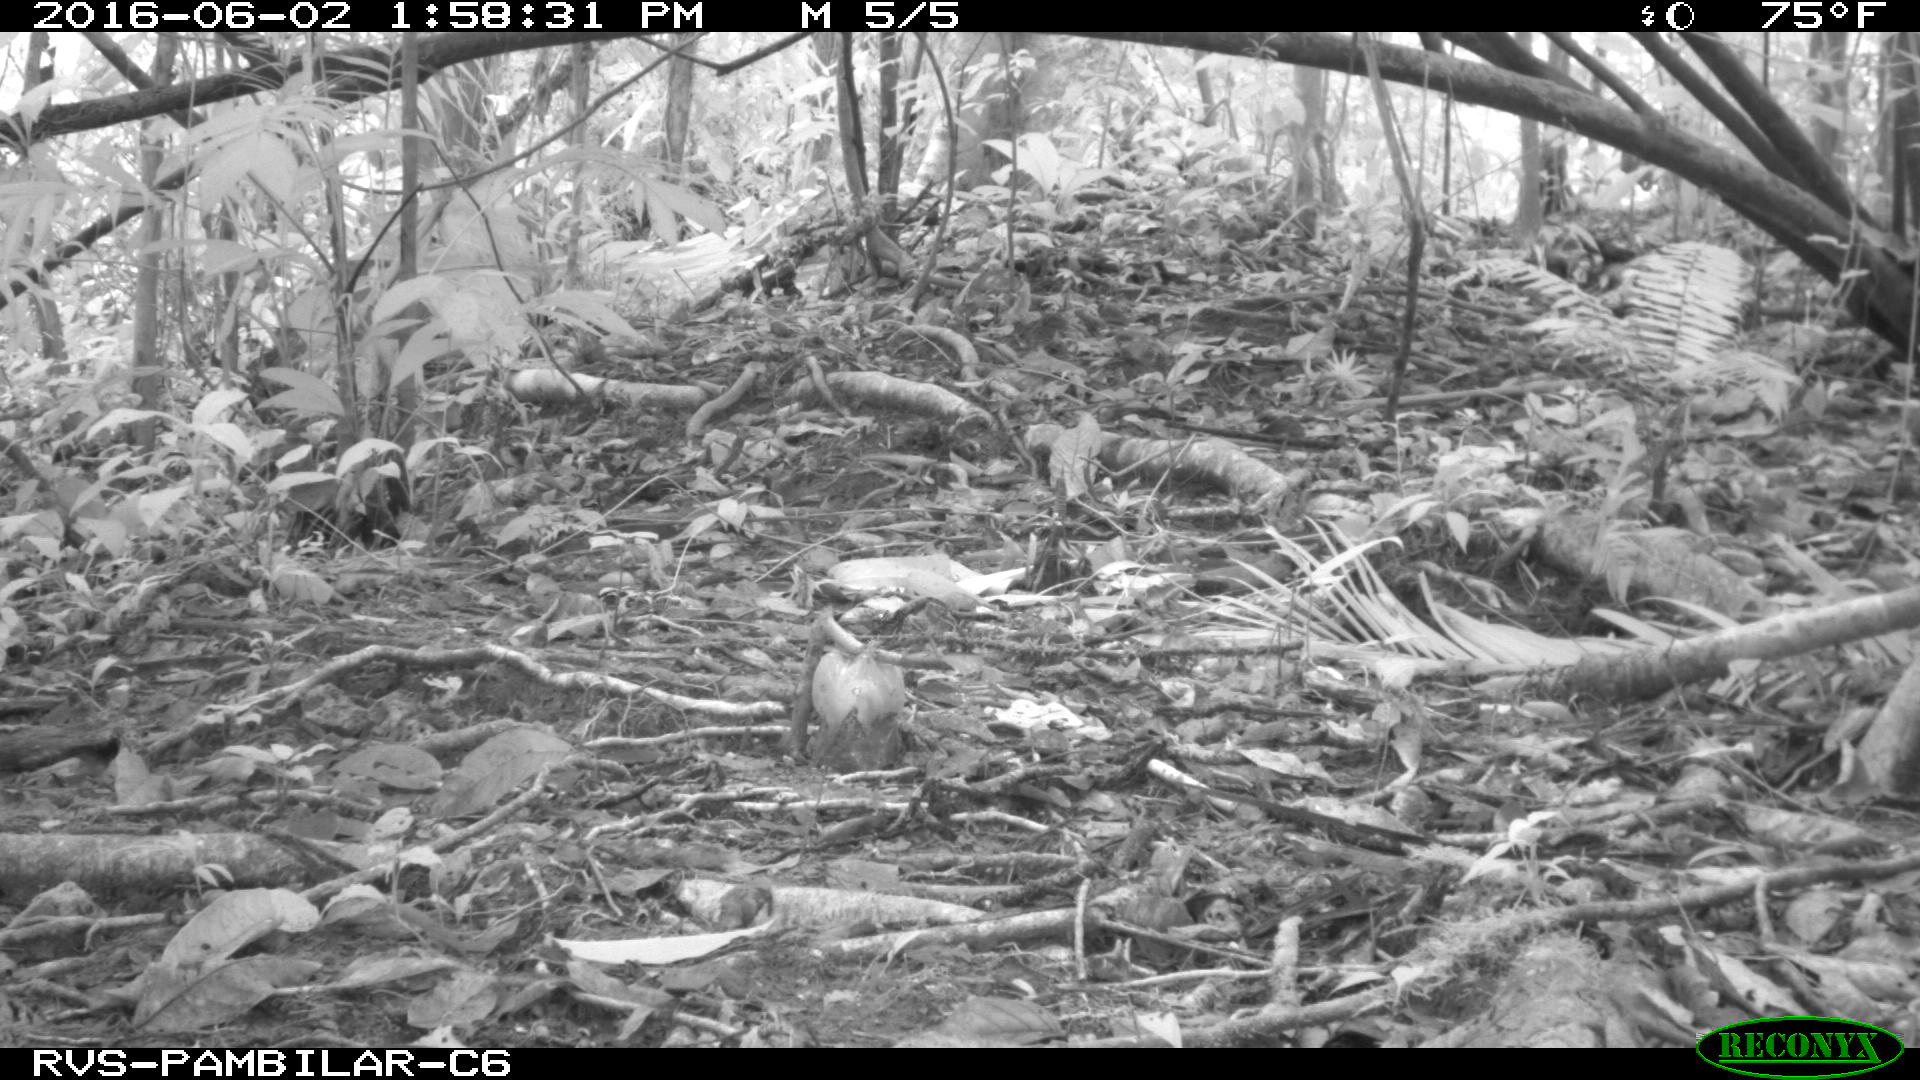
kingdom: Animalia
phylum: Chordata
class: Mammalia
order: Rodentia
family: Dasyproctidae
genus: Dasyprocta
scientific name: Dasyprocta punctata
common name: Central american agouti
